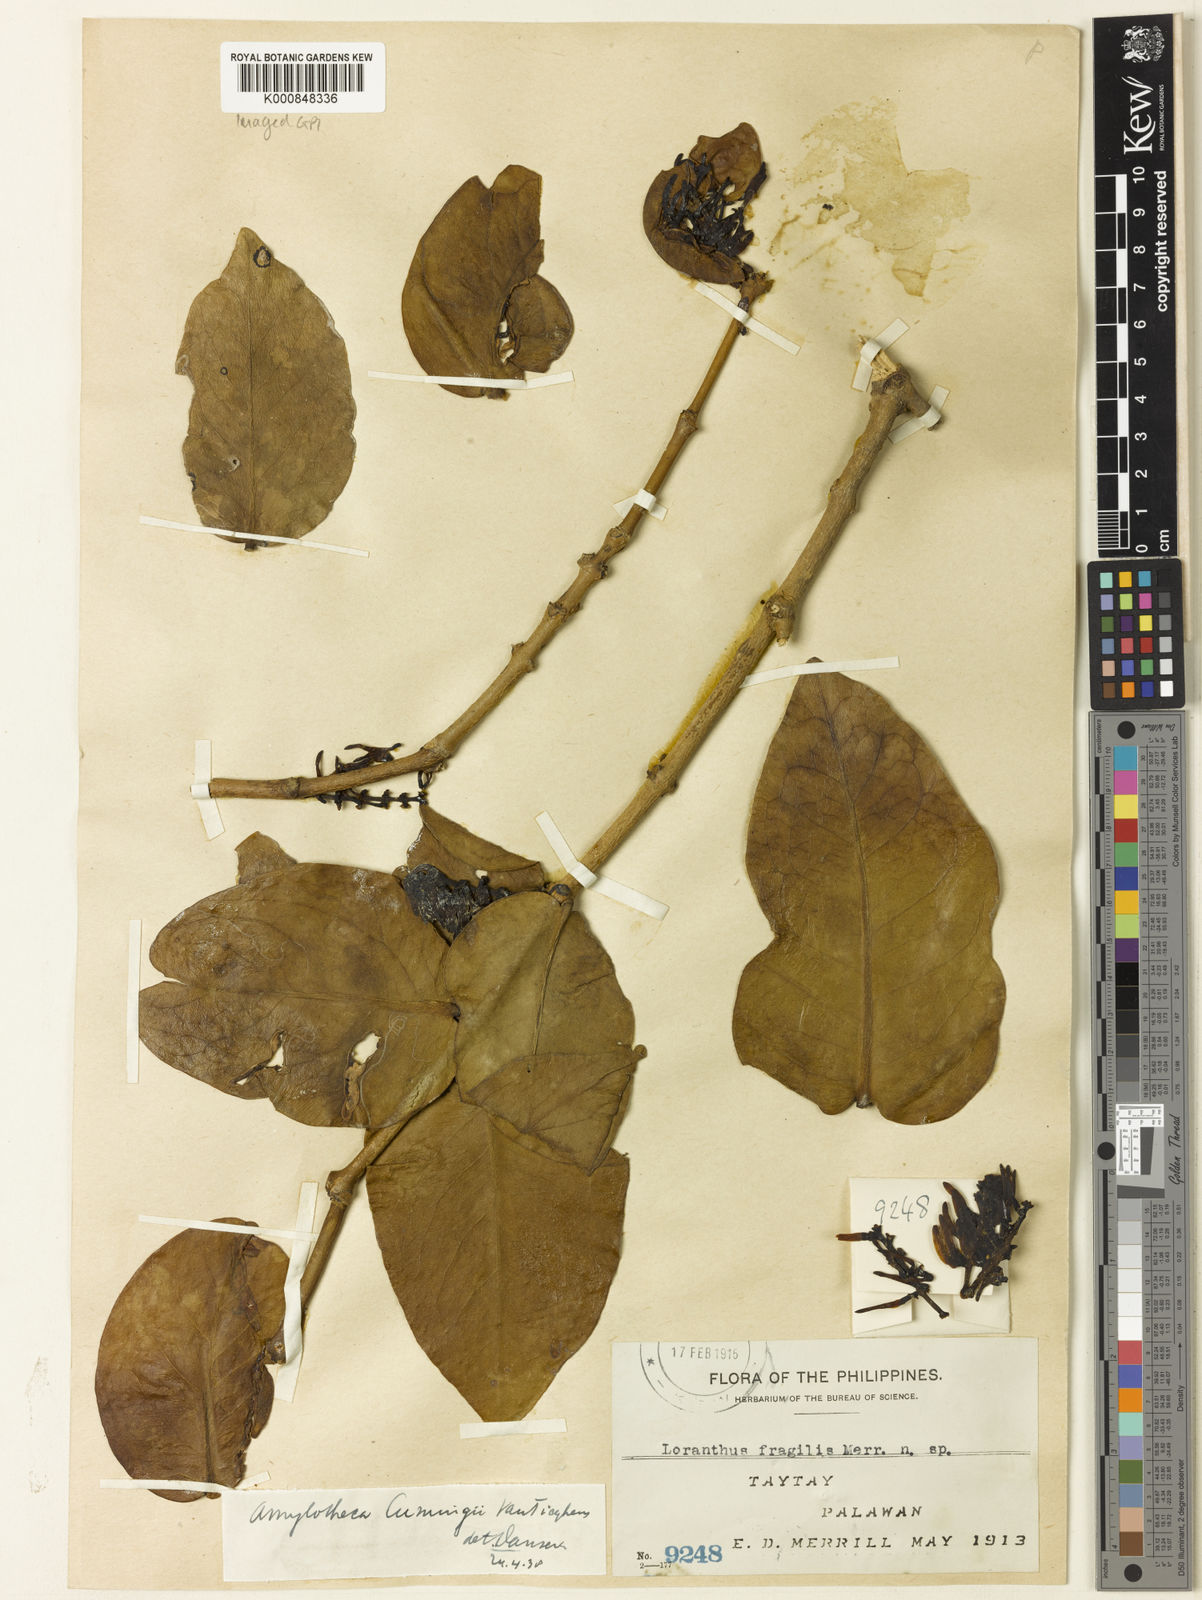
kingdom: Plantae
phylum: Tracheophyta
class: Magnoliopsida
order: Santalales
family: Loranthaceae
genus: Amylotheca
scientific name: Amylotheca
